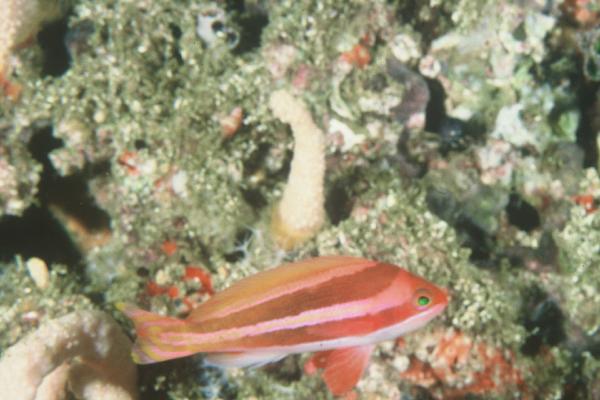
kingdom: Animalia
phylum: Chordata
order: Perciformes
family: Serranidae
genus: Pseudanthias
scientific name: Pseudanthias townsendi
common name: Townsend's anthias
